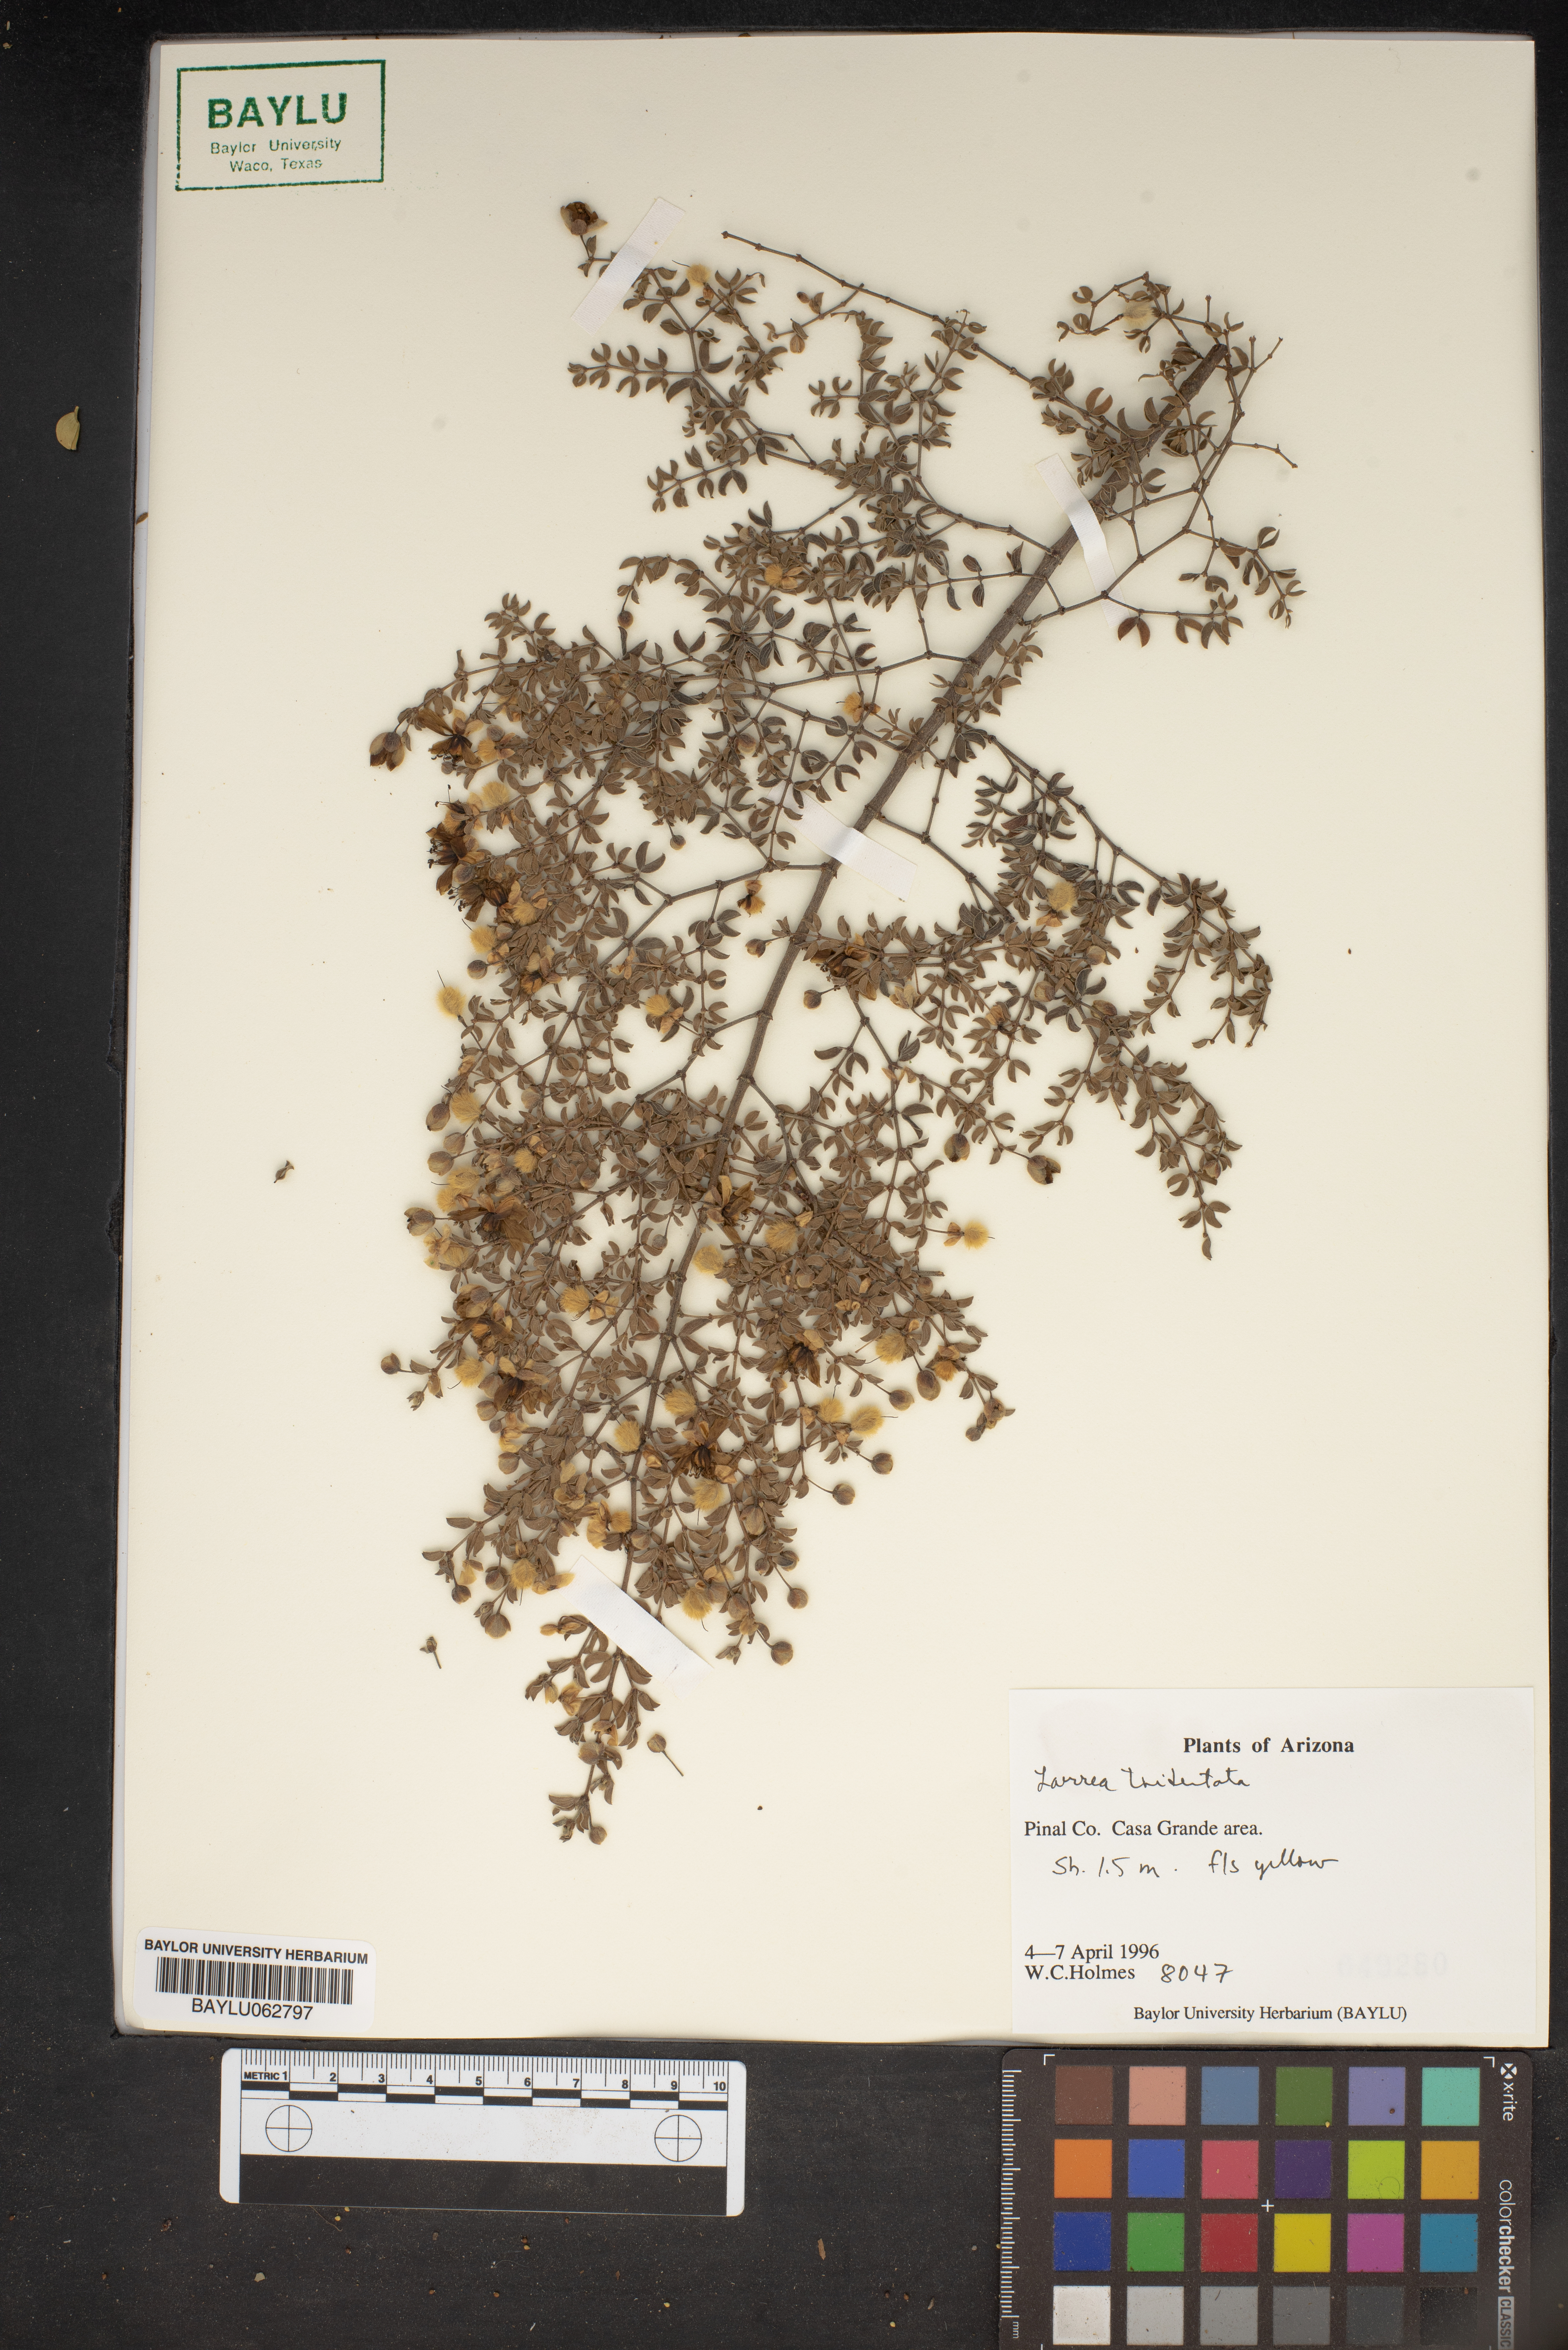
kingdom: Plantae
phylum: Tracheophyta
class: Magnoliopsida
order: Zygophyllales
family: Zygophyllaceae
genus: Larrea
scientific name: Larrea tridentata
